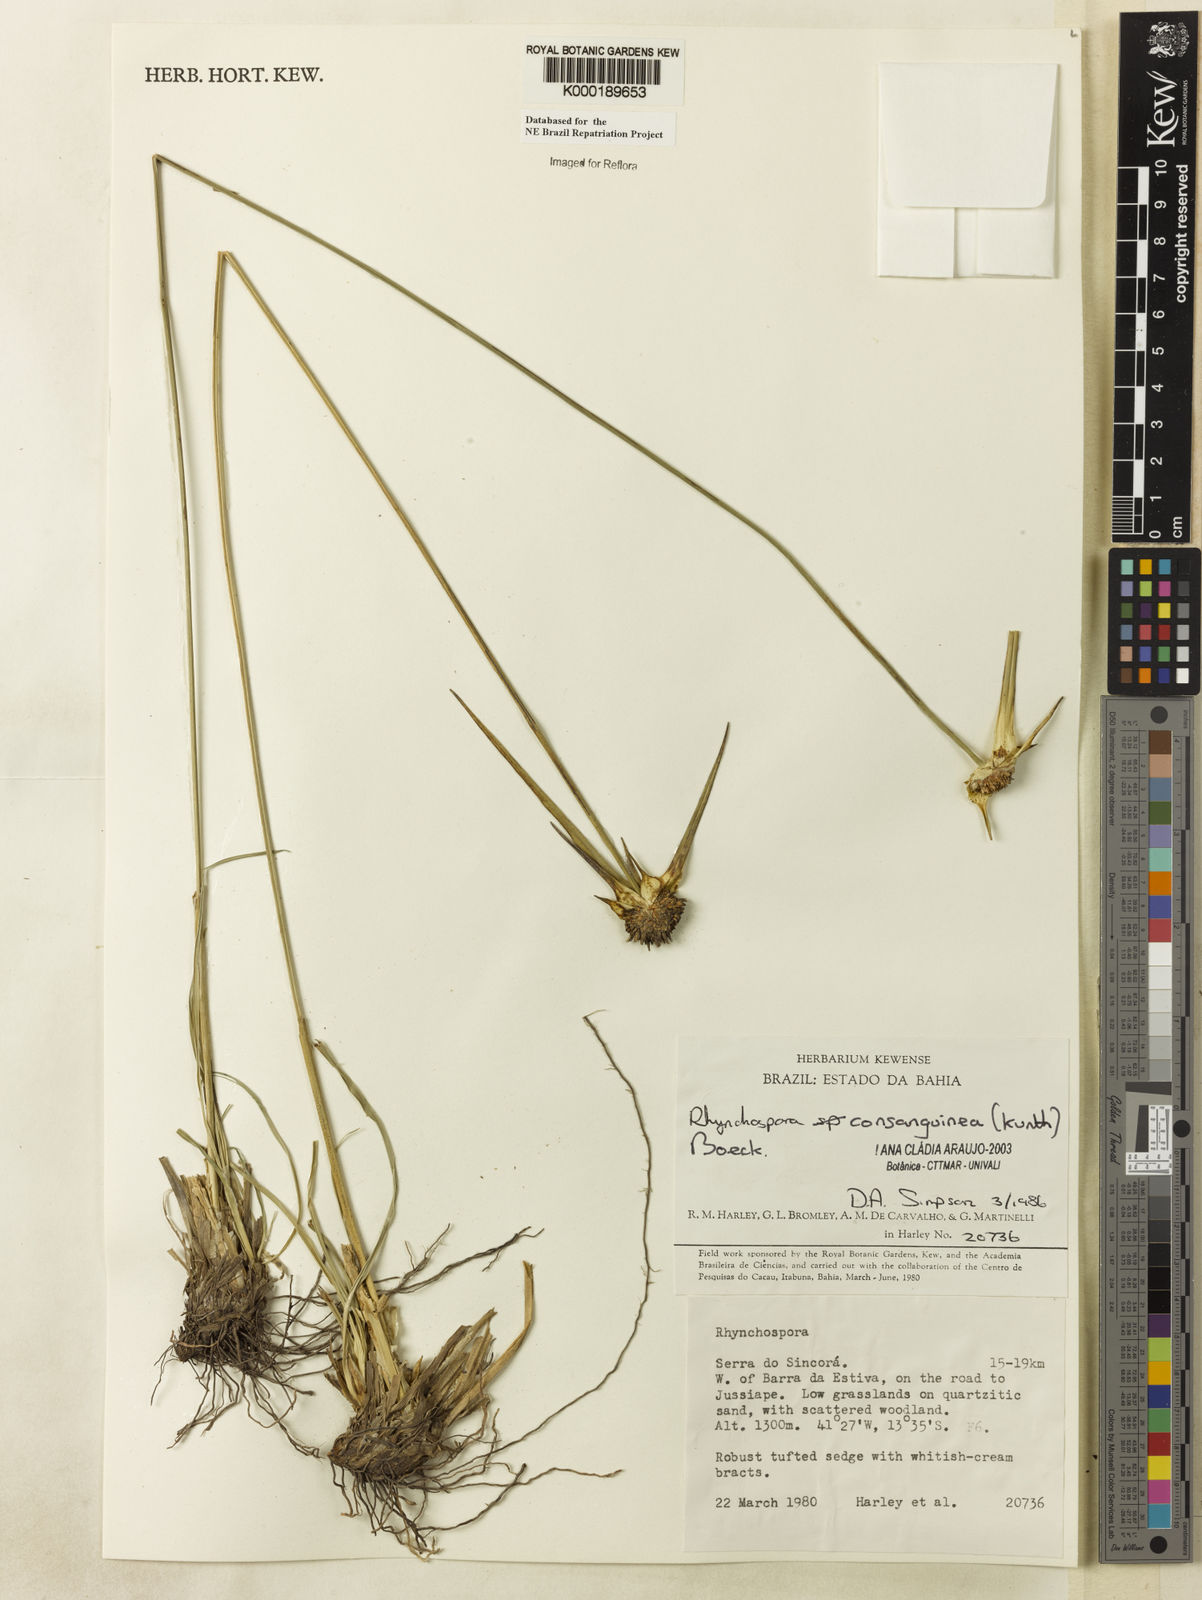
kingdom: Plantae
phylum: Tracheophyta
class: Liliopsida
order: Poales
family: Cyperaceae
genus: Rhynchospora
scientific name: Rhynchospora consanguinea
